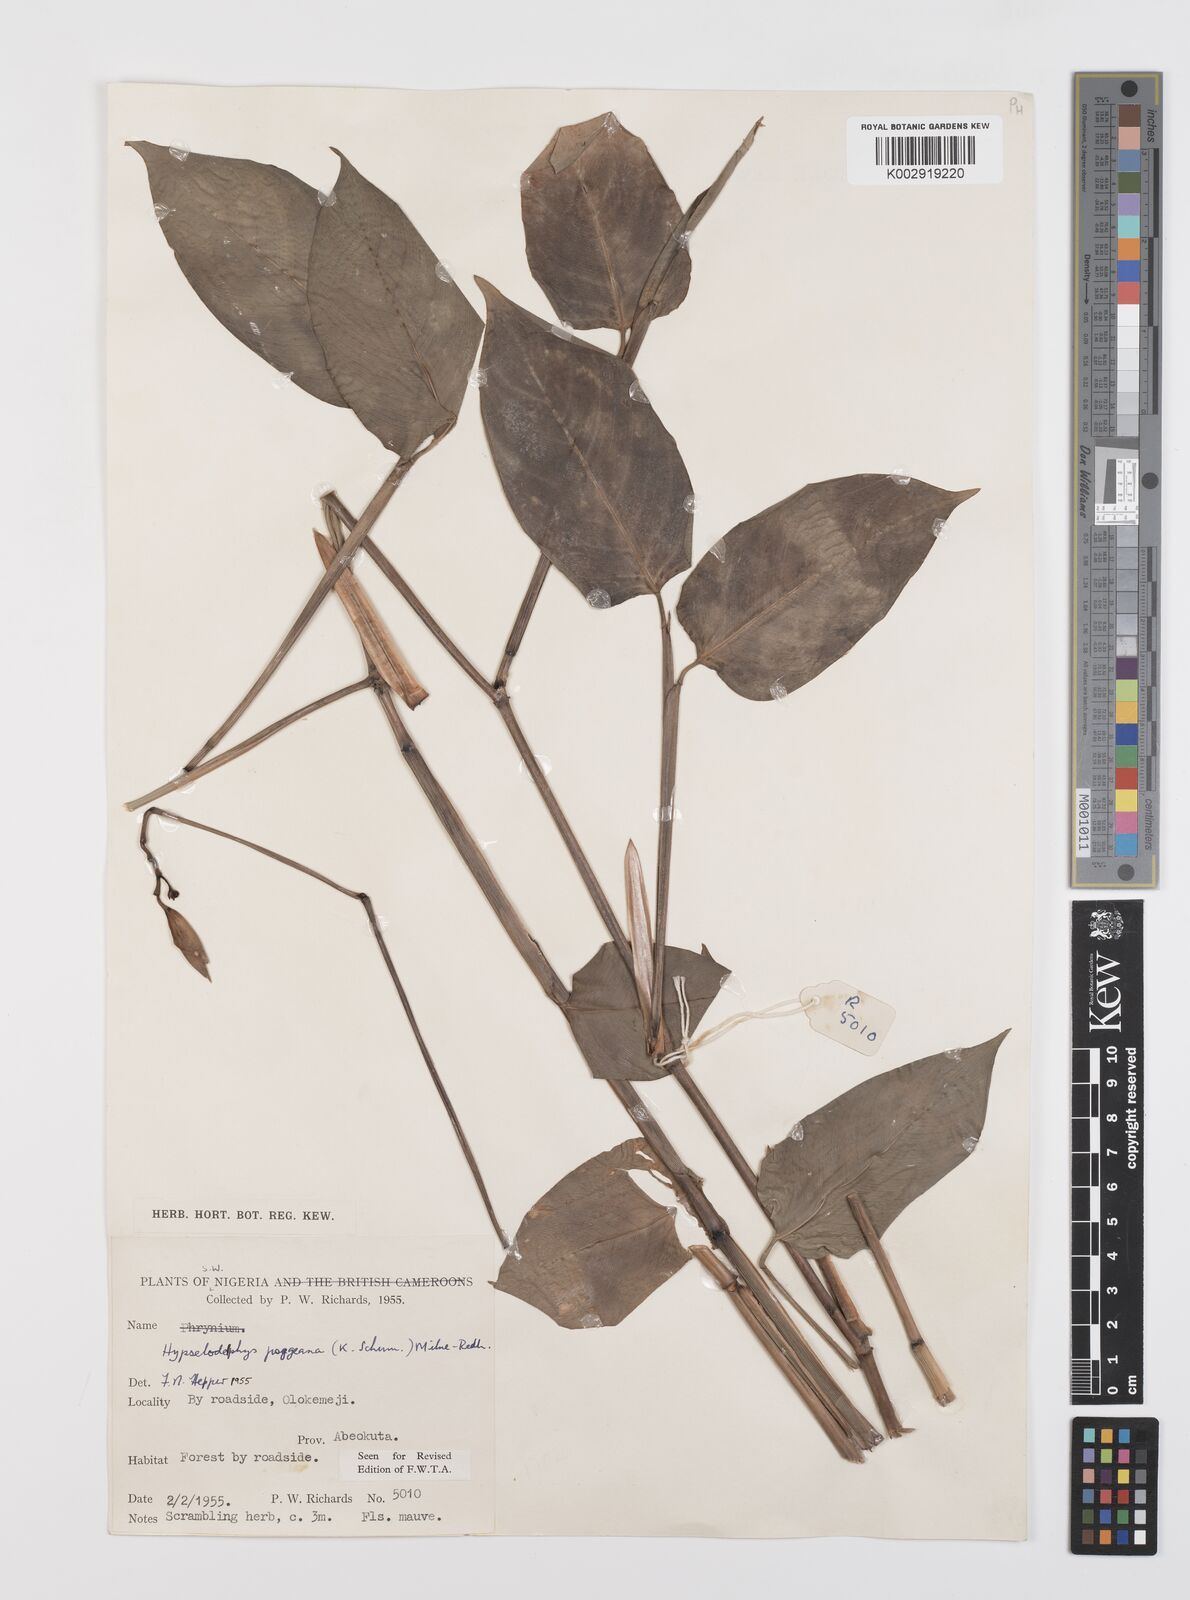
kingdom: Plantae
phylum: Tracheophyta
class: Liliopsida
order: Zingiberales
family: Marantaceae
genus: Hypselodelphys
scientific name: Hypselodelphys poggeana
